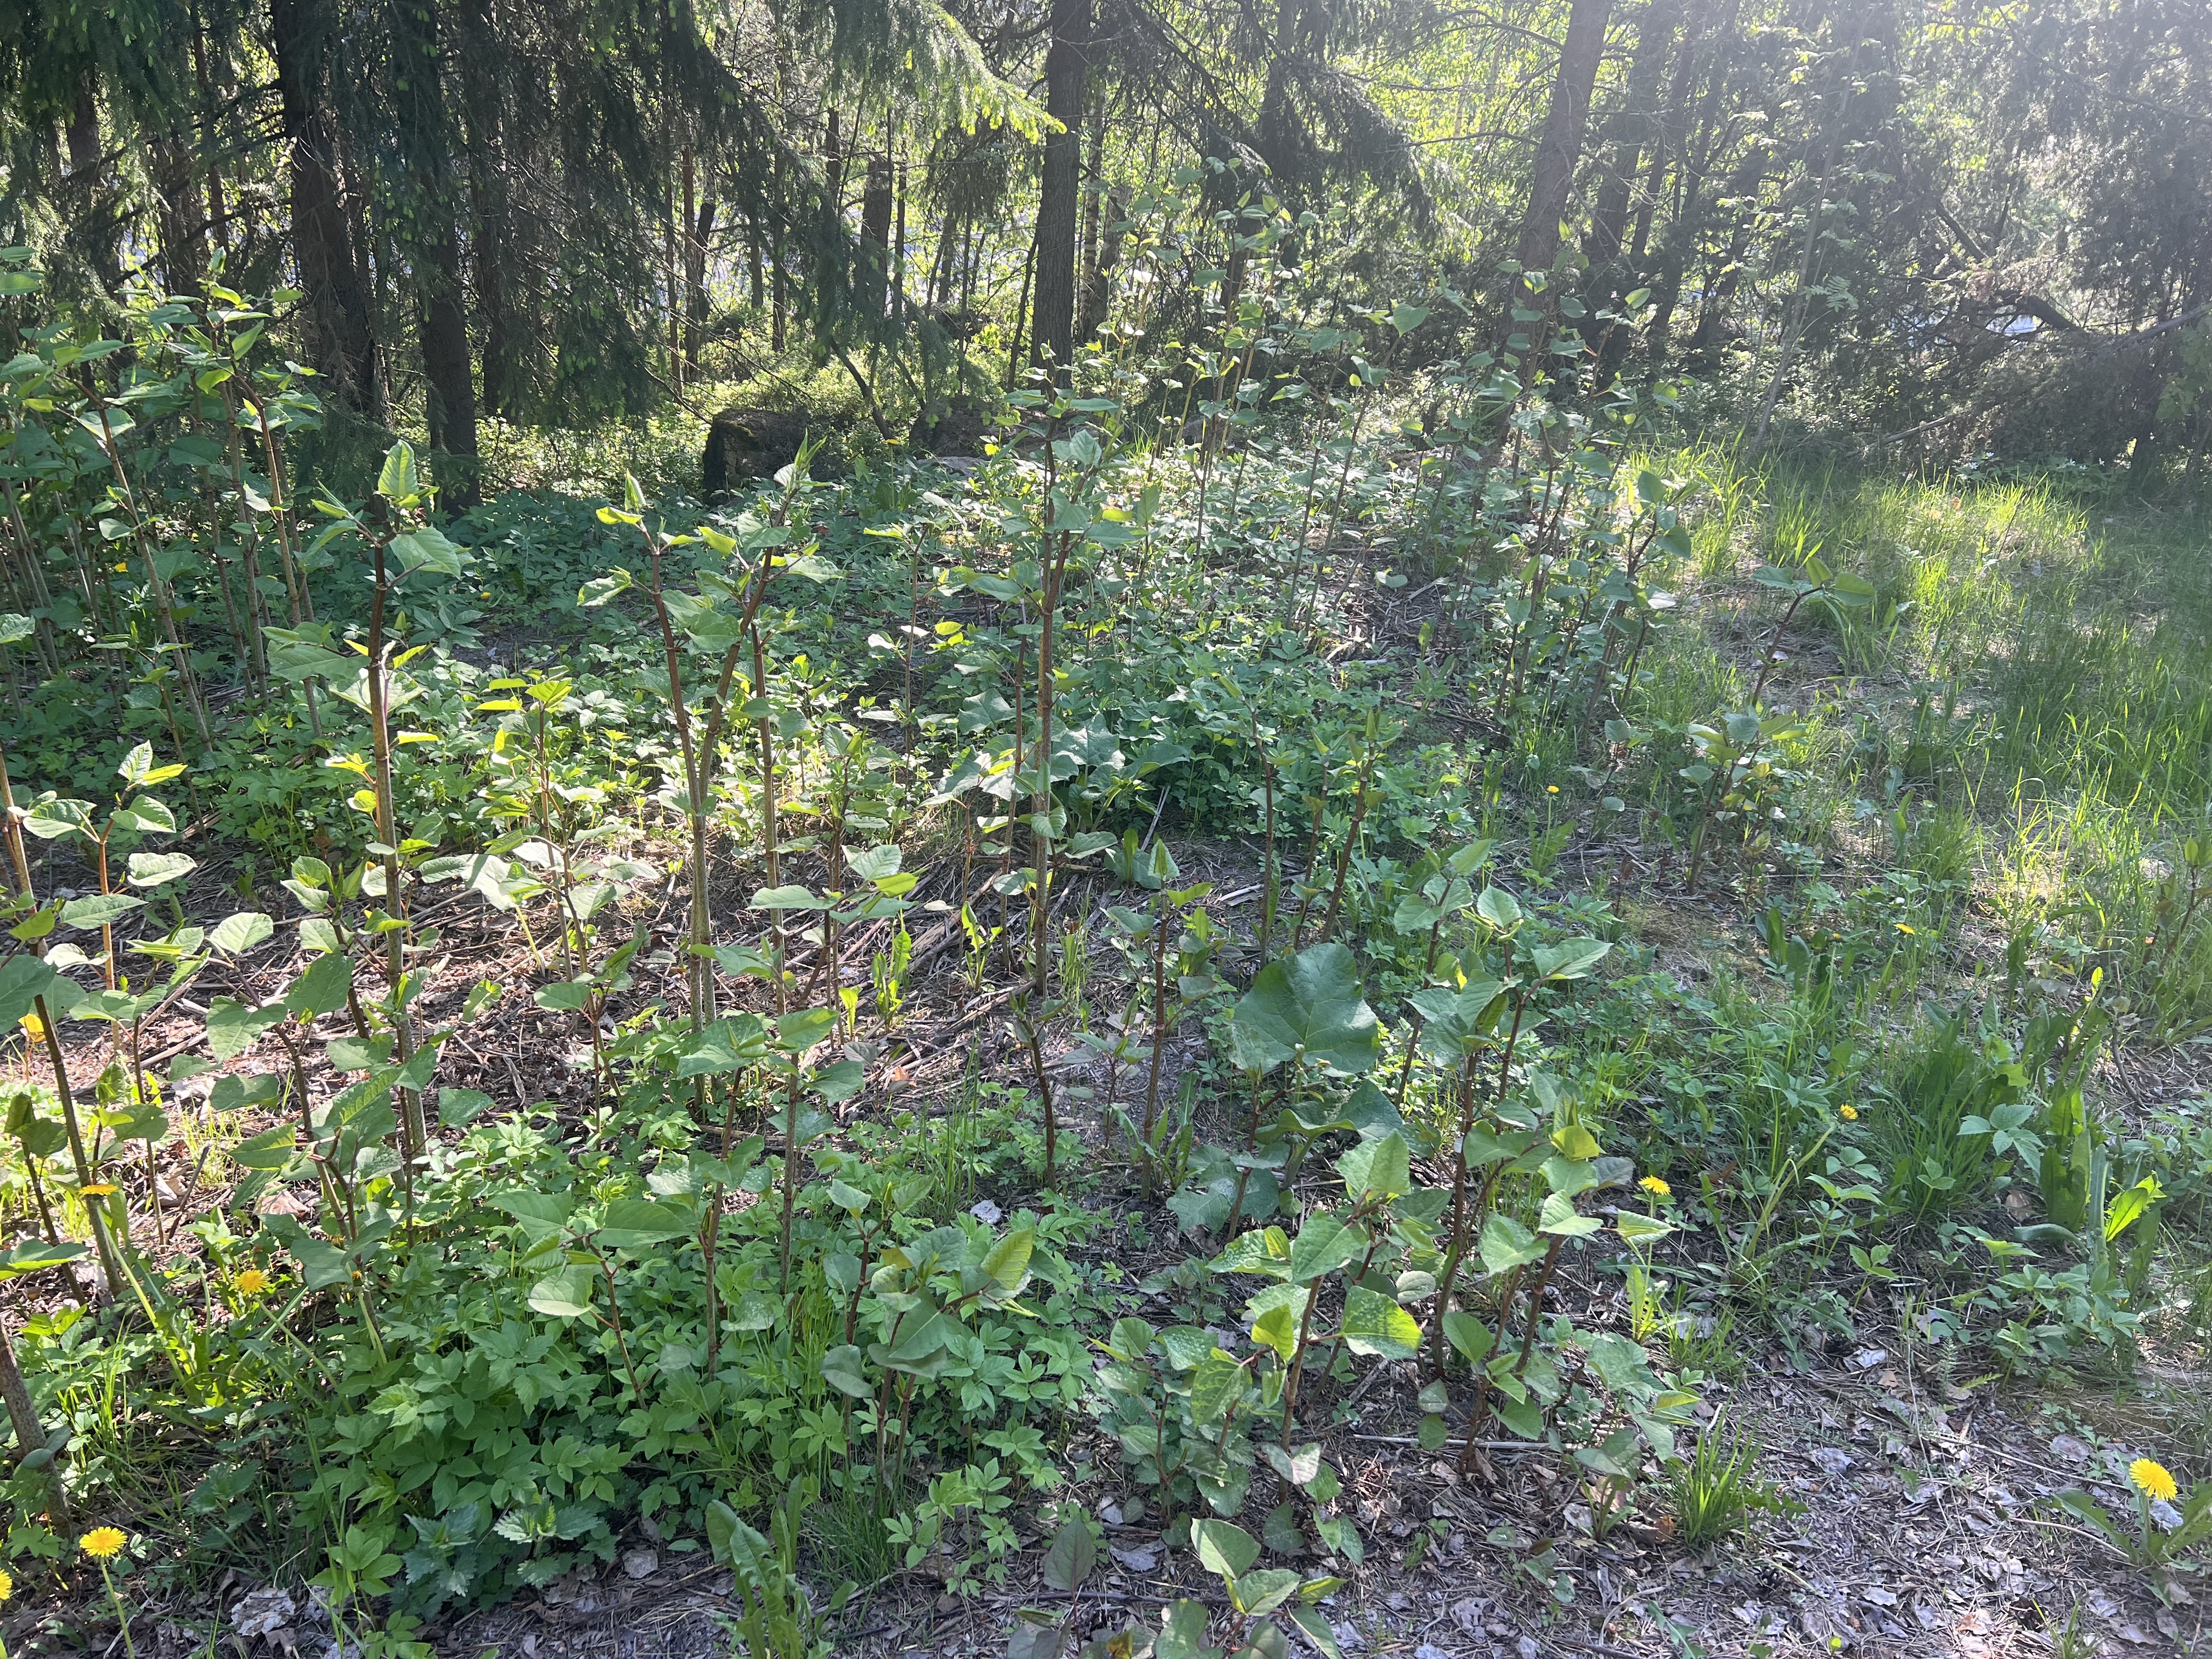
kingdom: Plantae
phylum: Tracheophyta
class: Magnoliopsida
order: Caryophyllales
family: Polygonaceae
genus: Reynoutria
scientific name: Reynoutria japonica
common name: Japanese knotweed
